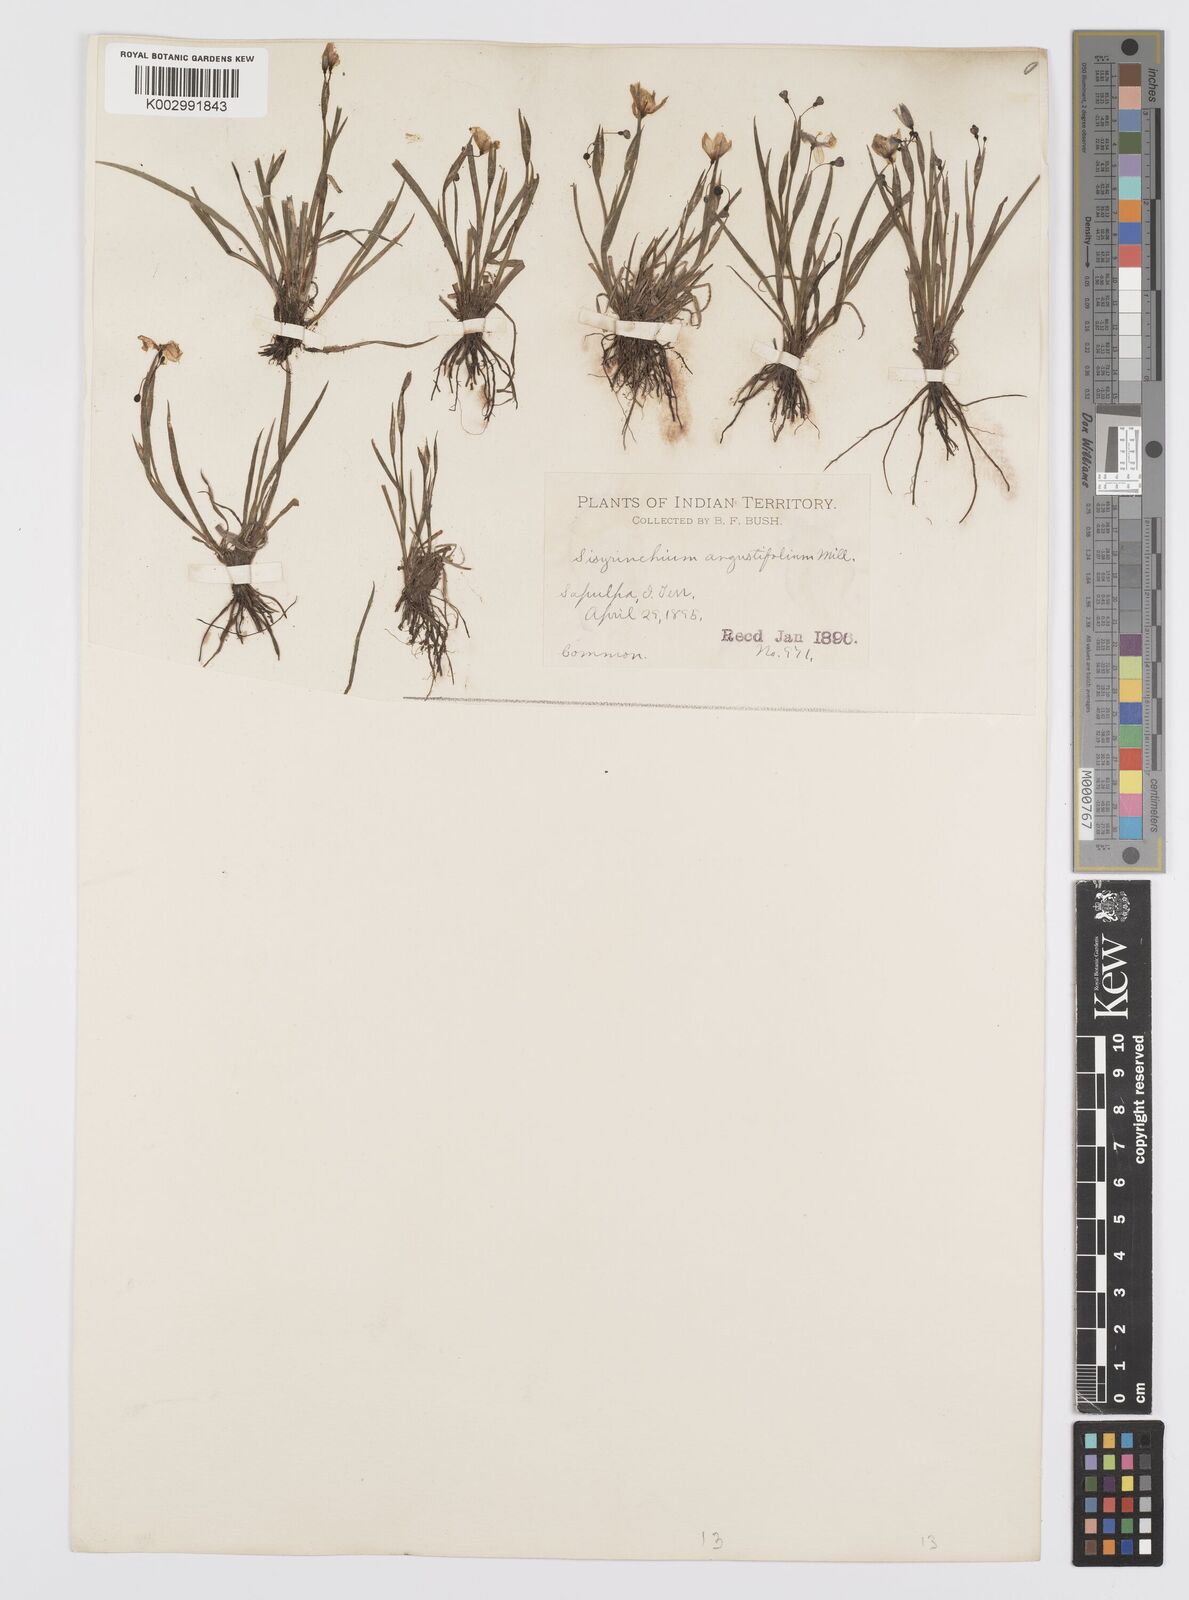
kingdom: Plantae
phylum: Tracheophyta
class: Liliopsida
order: Asparagales
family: Iridaceae
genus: Sisyrinchium
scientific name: Sisyrinchium bermudiana
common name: Blue-eyed-grass
